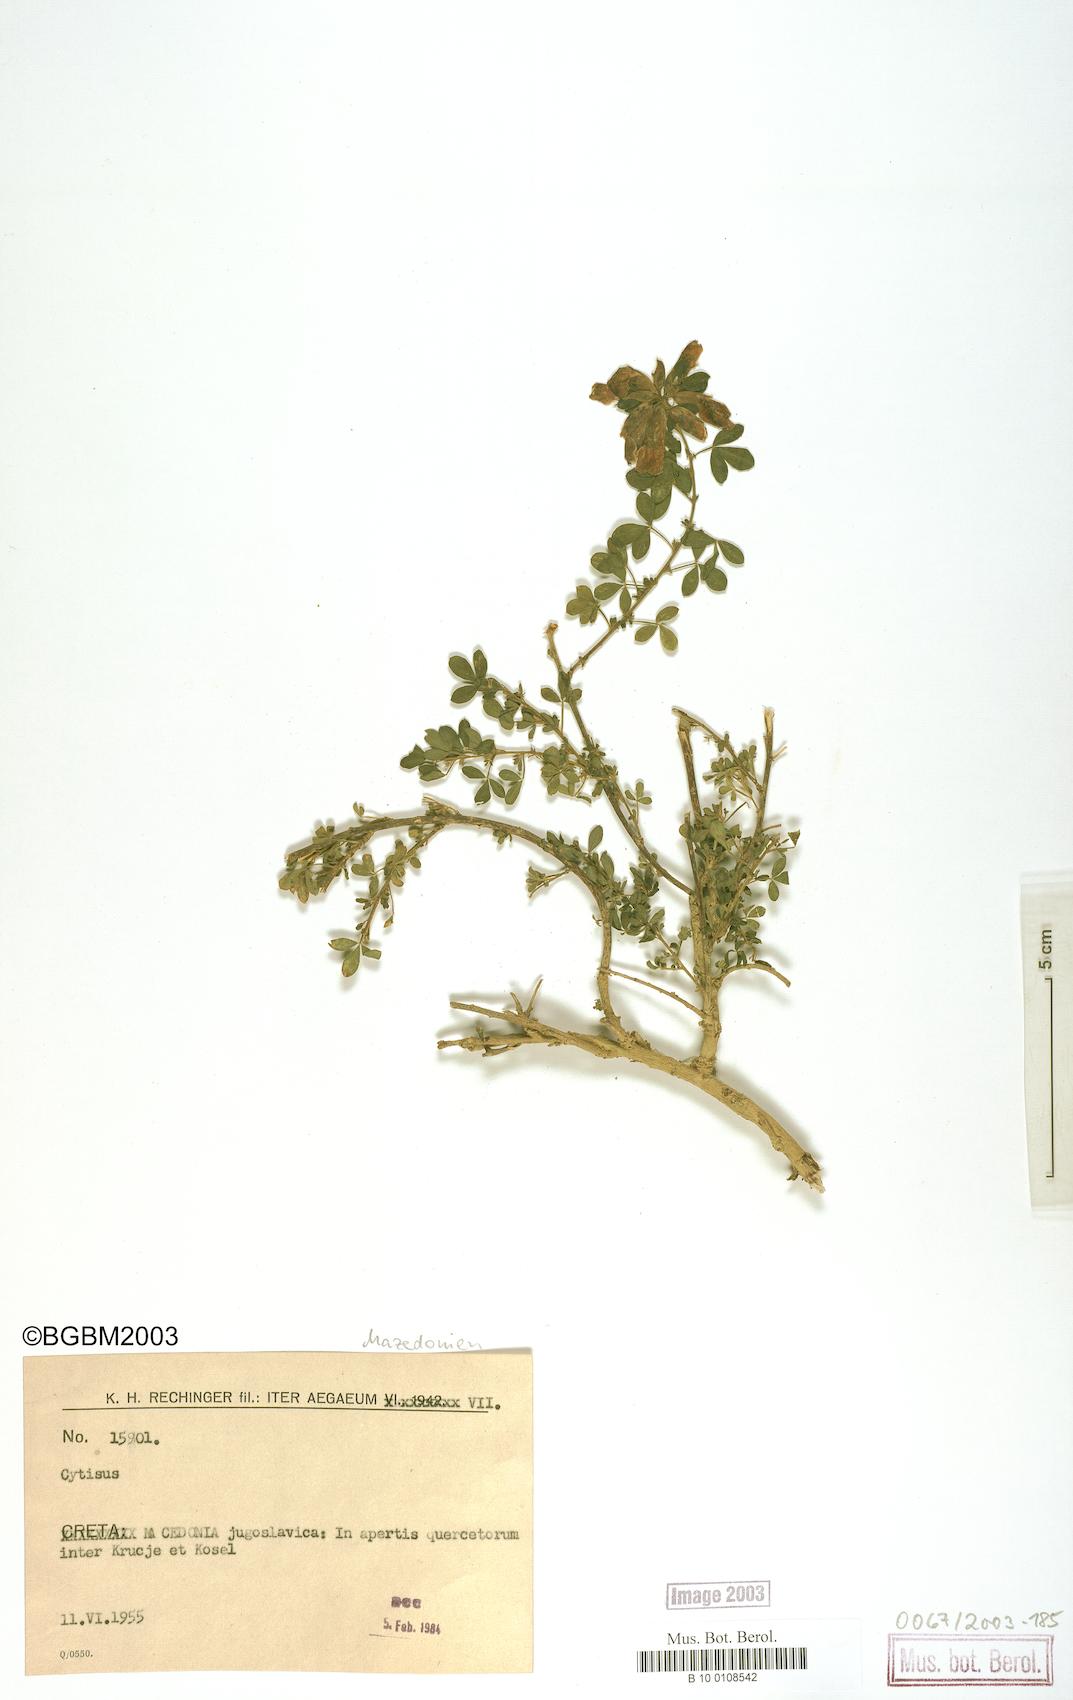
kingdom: Plantae
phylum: Tracheophyta
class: Magnoliopsida
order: Fabales
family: Fabaceae
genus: Cytisus
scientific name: Cytisus
